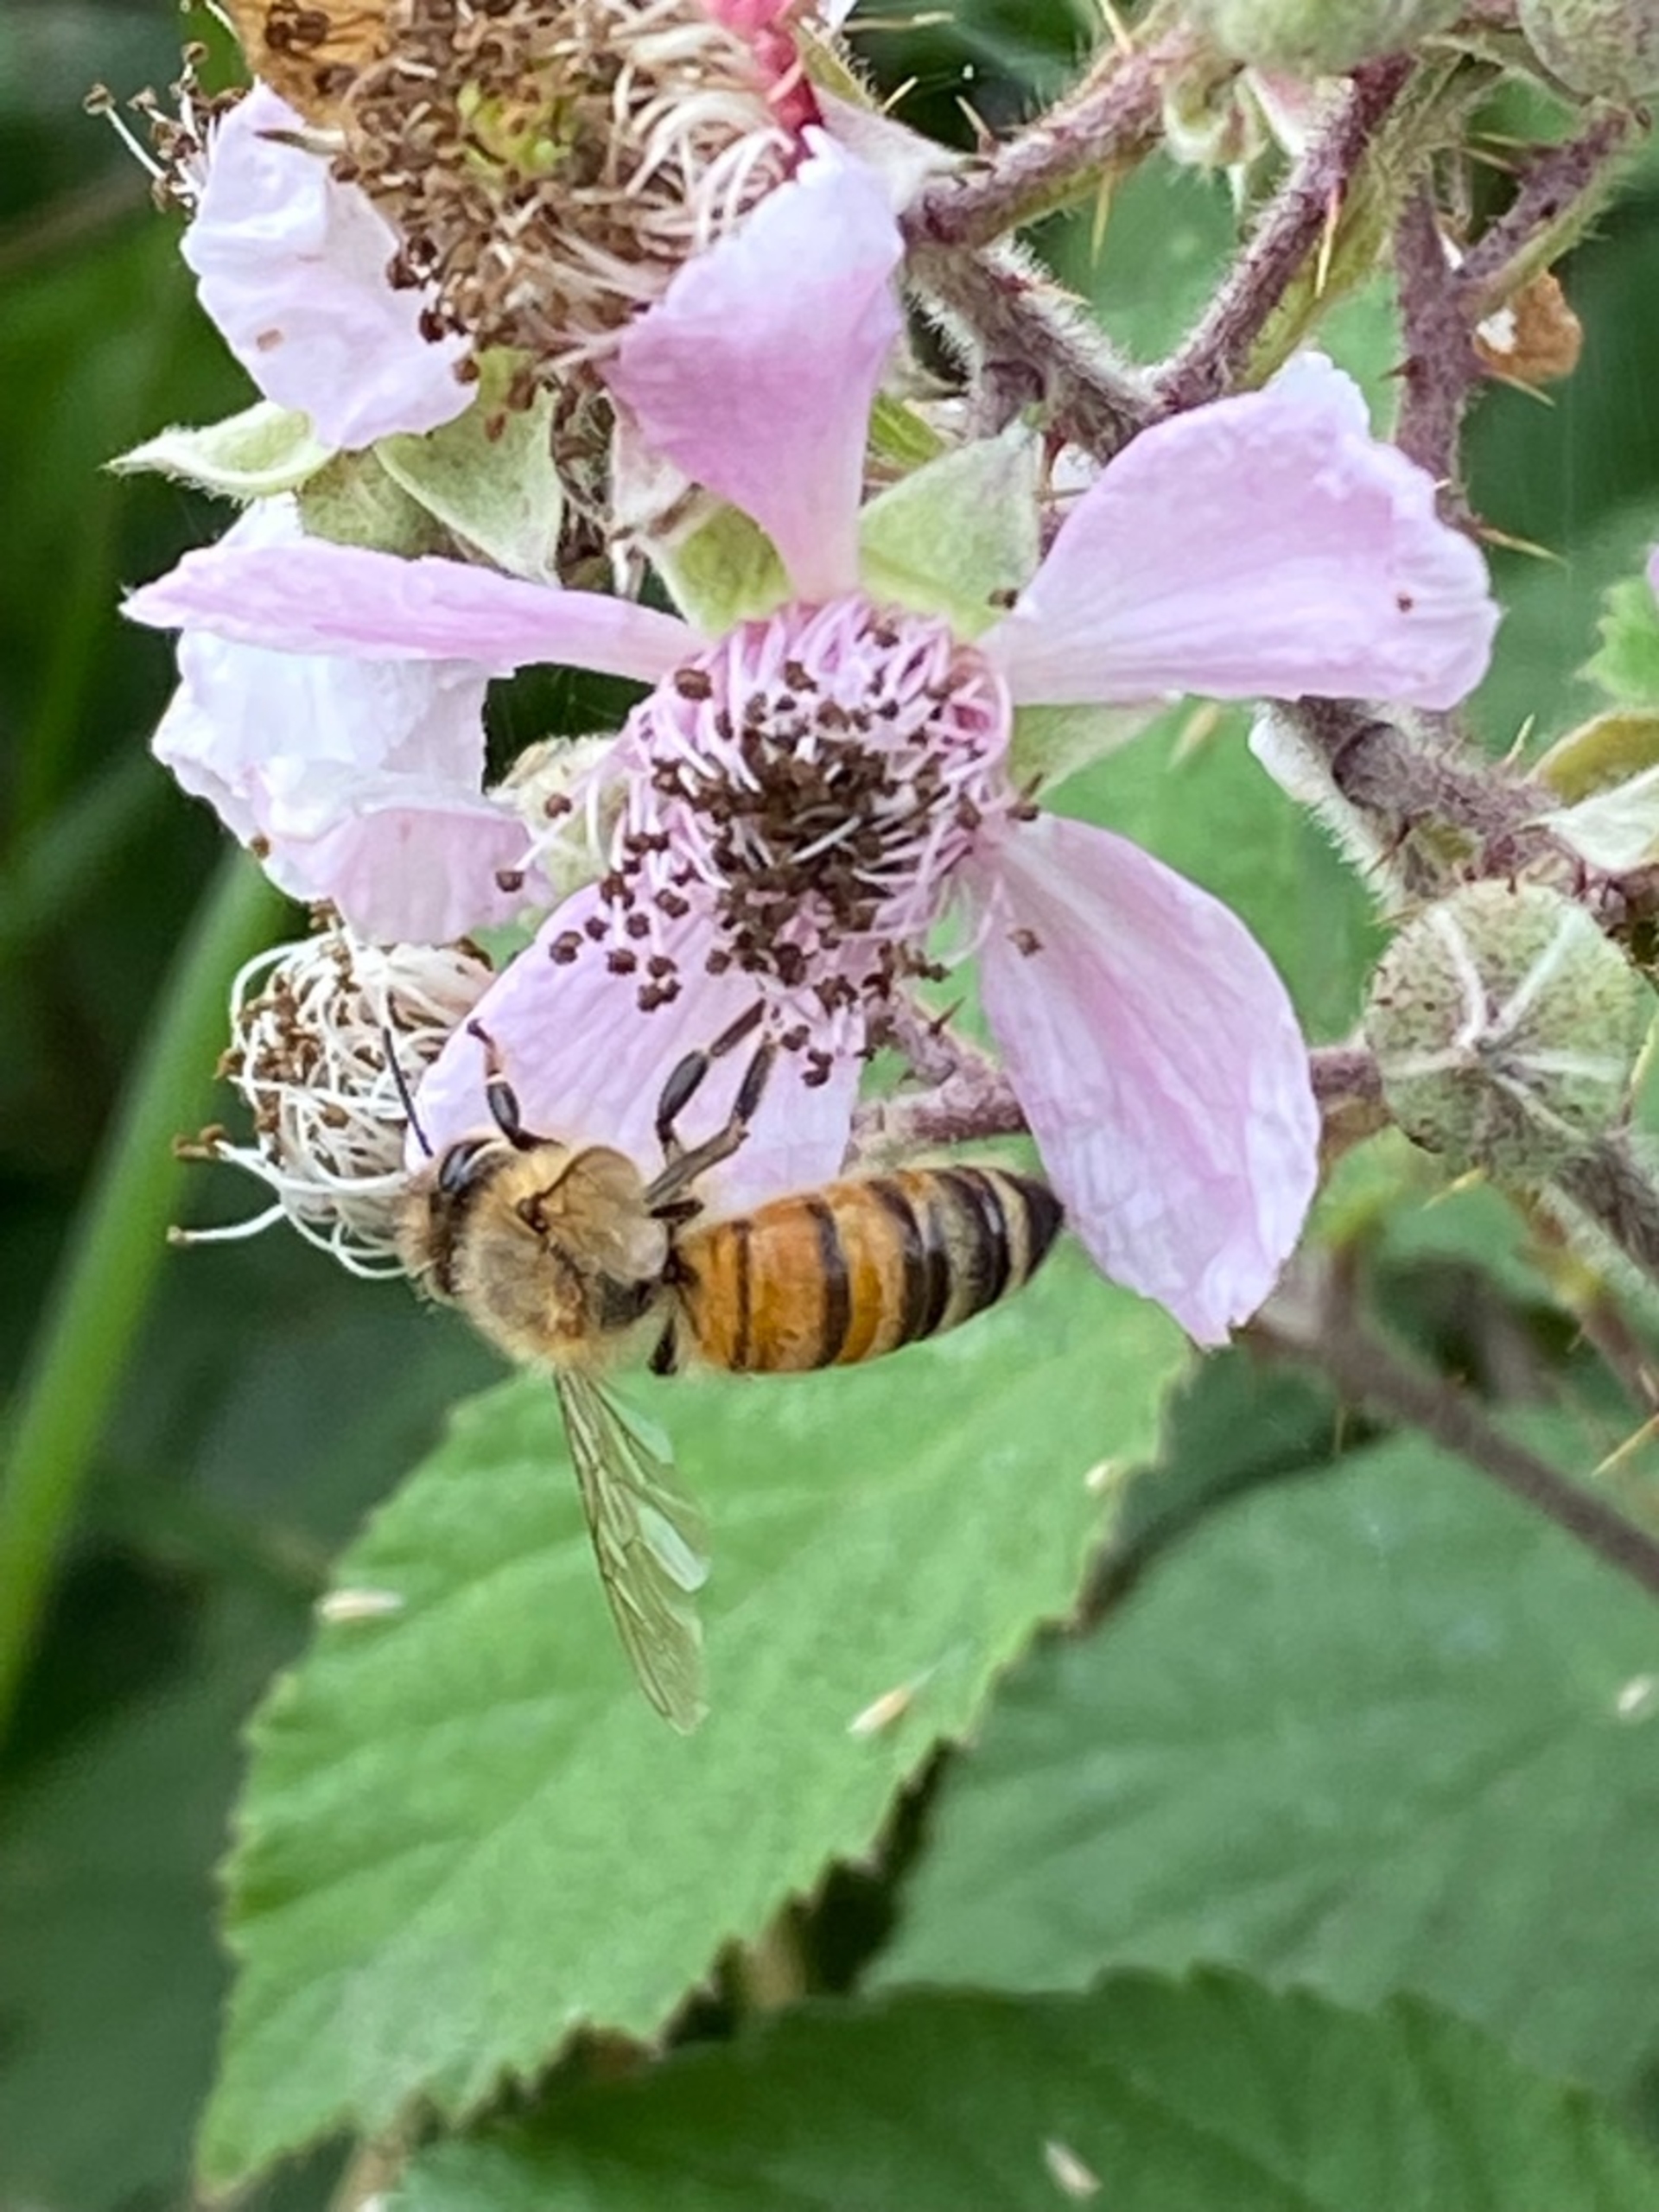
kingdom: Animalia
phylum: Arthropoda
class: Insecta
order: Hymenoptera
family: Apidae
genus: Apis
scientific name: Apis mellifera
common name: Honningbi
